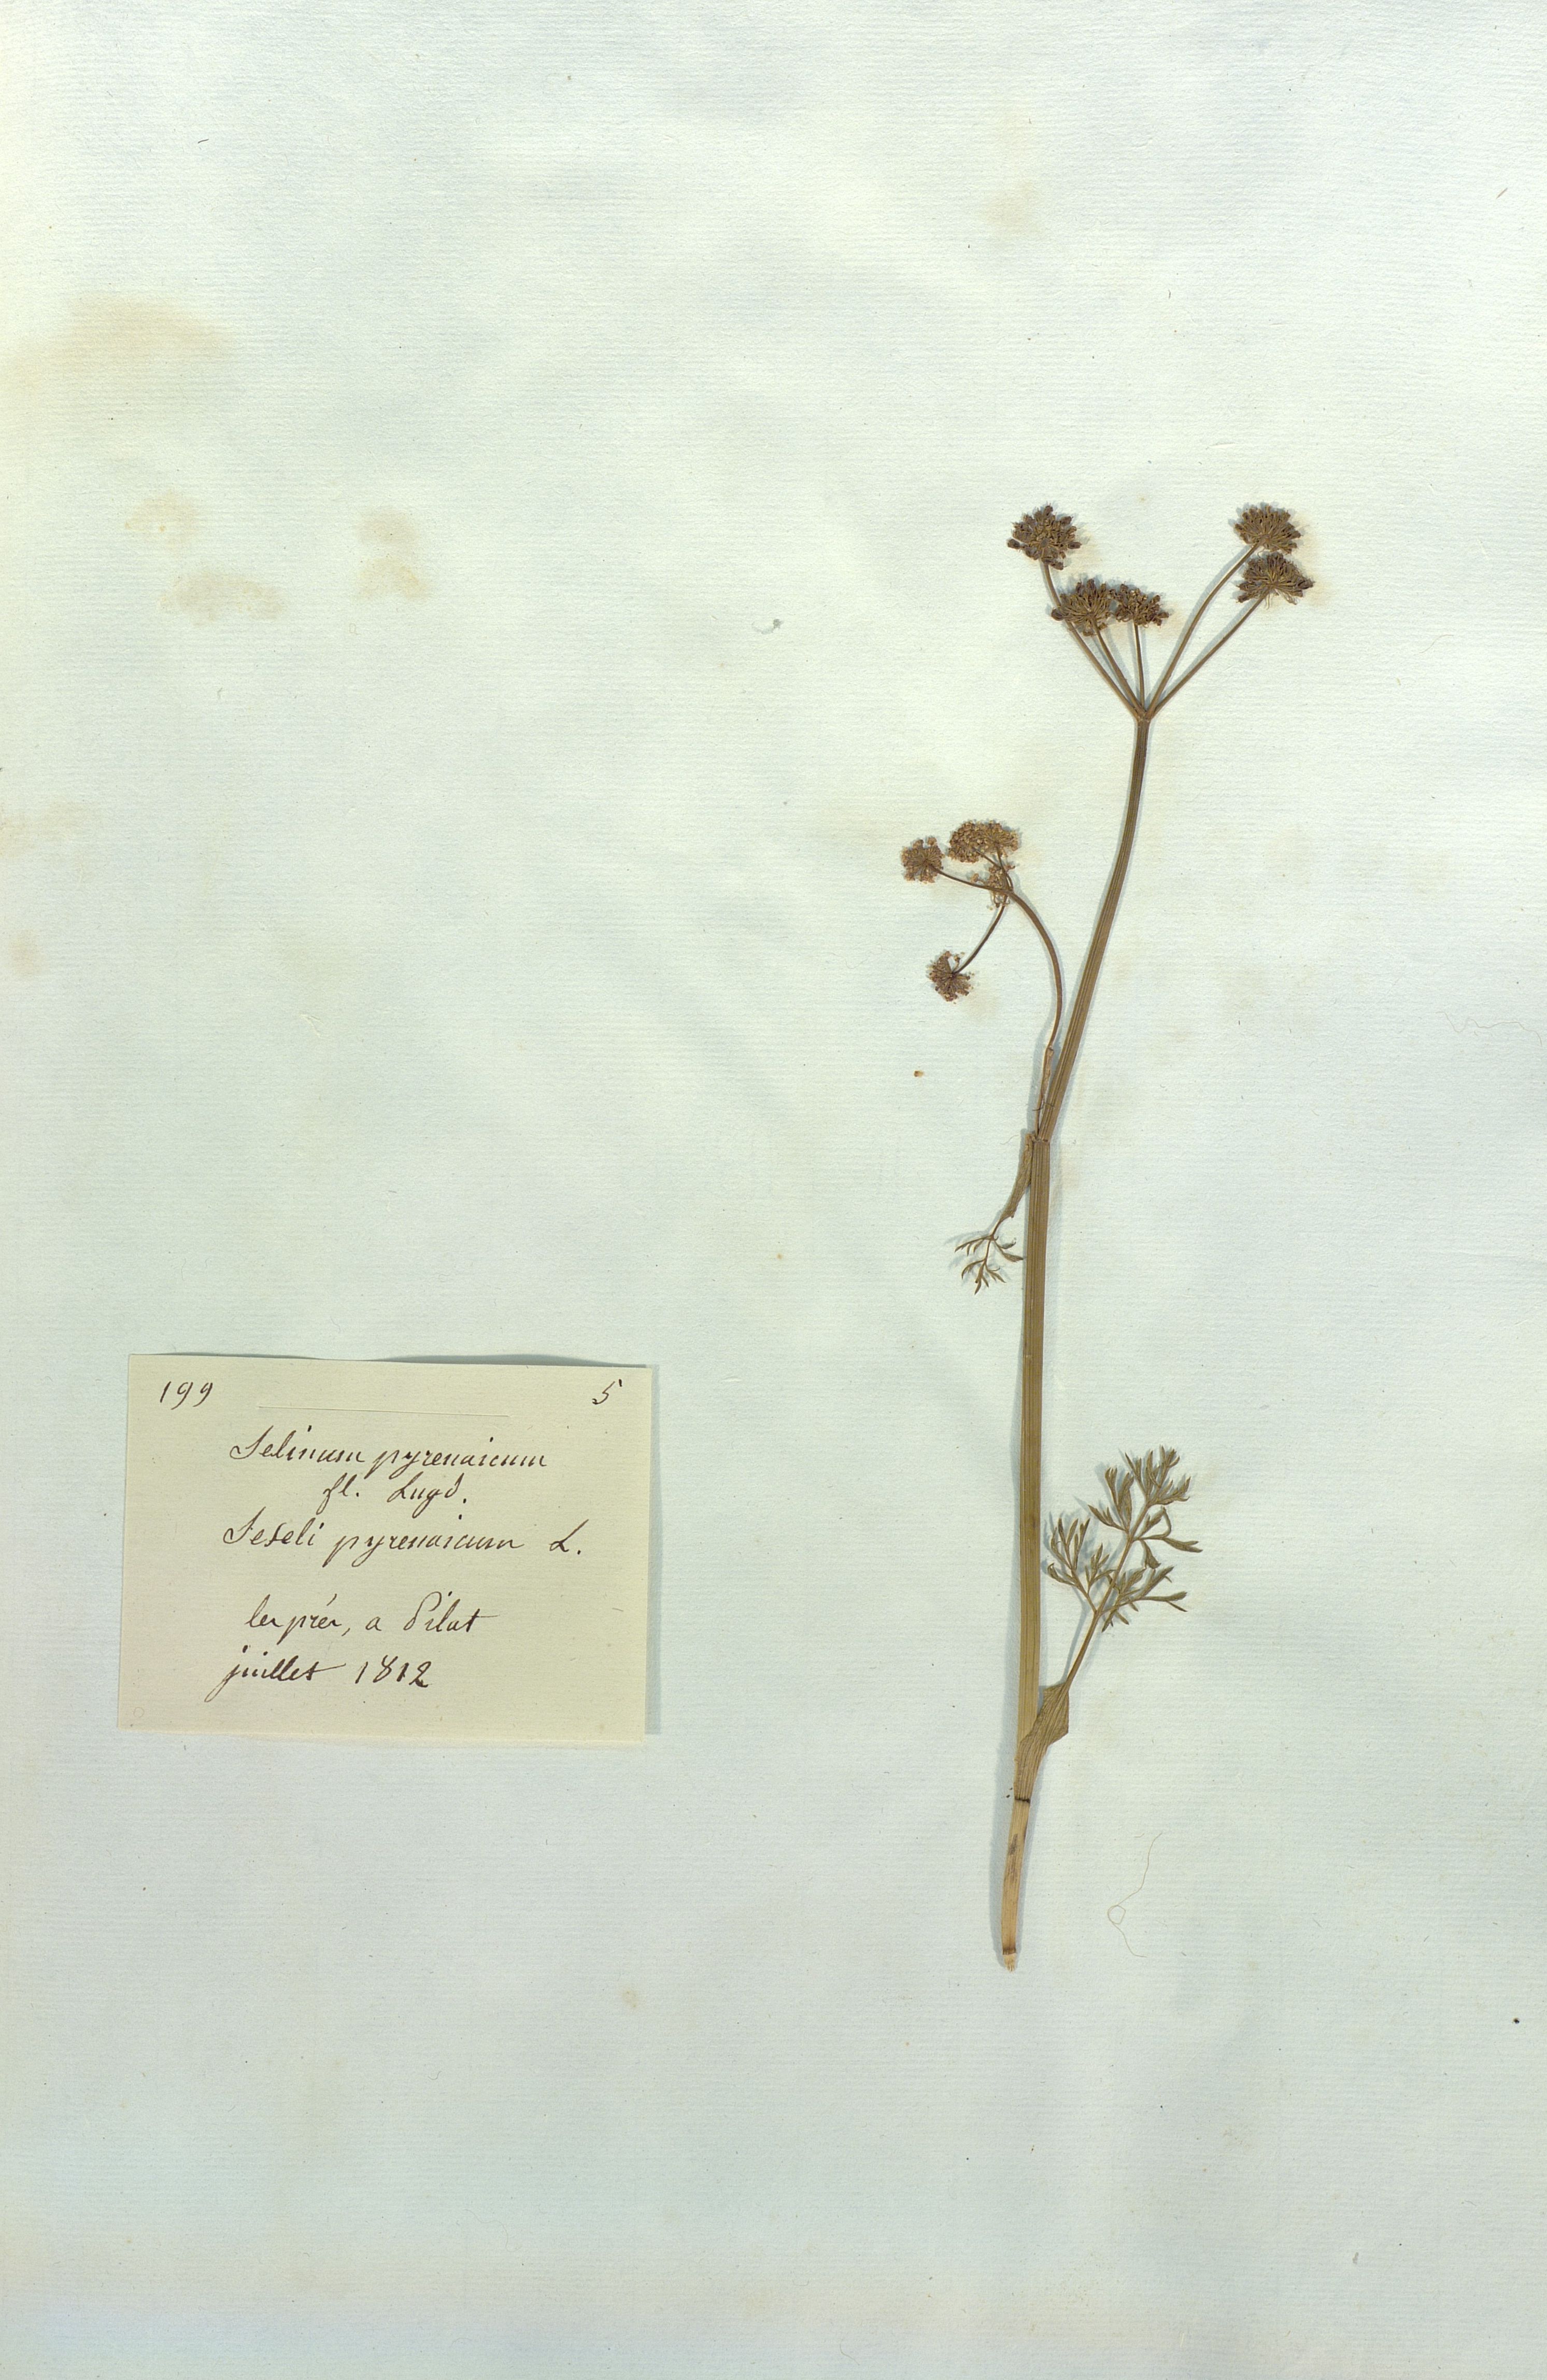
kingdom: Plantae
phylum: Tracheophyta
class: Magnoliopsida
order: Apiales
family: Apiaceae
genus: Epikeros
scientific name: Epikeros pyrenaeus
